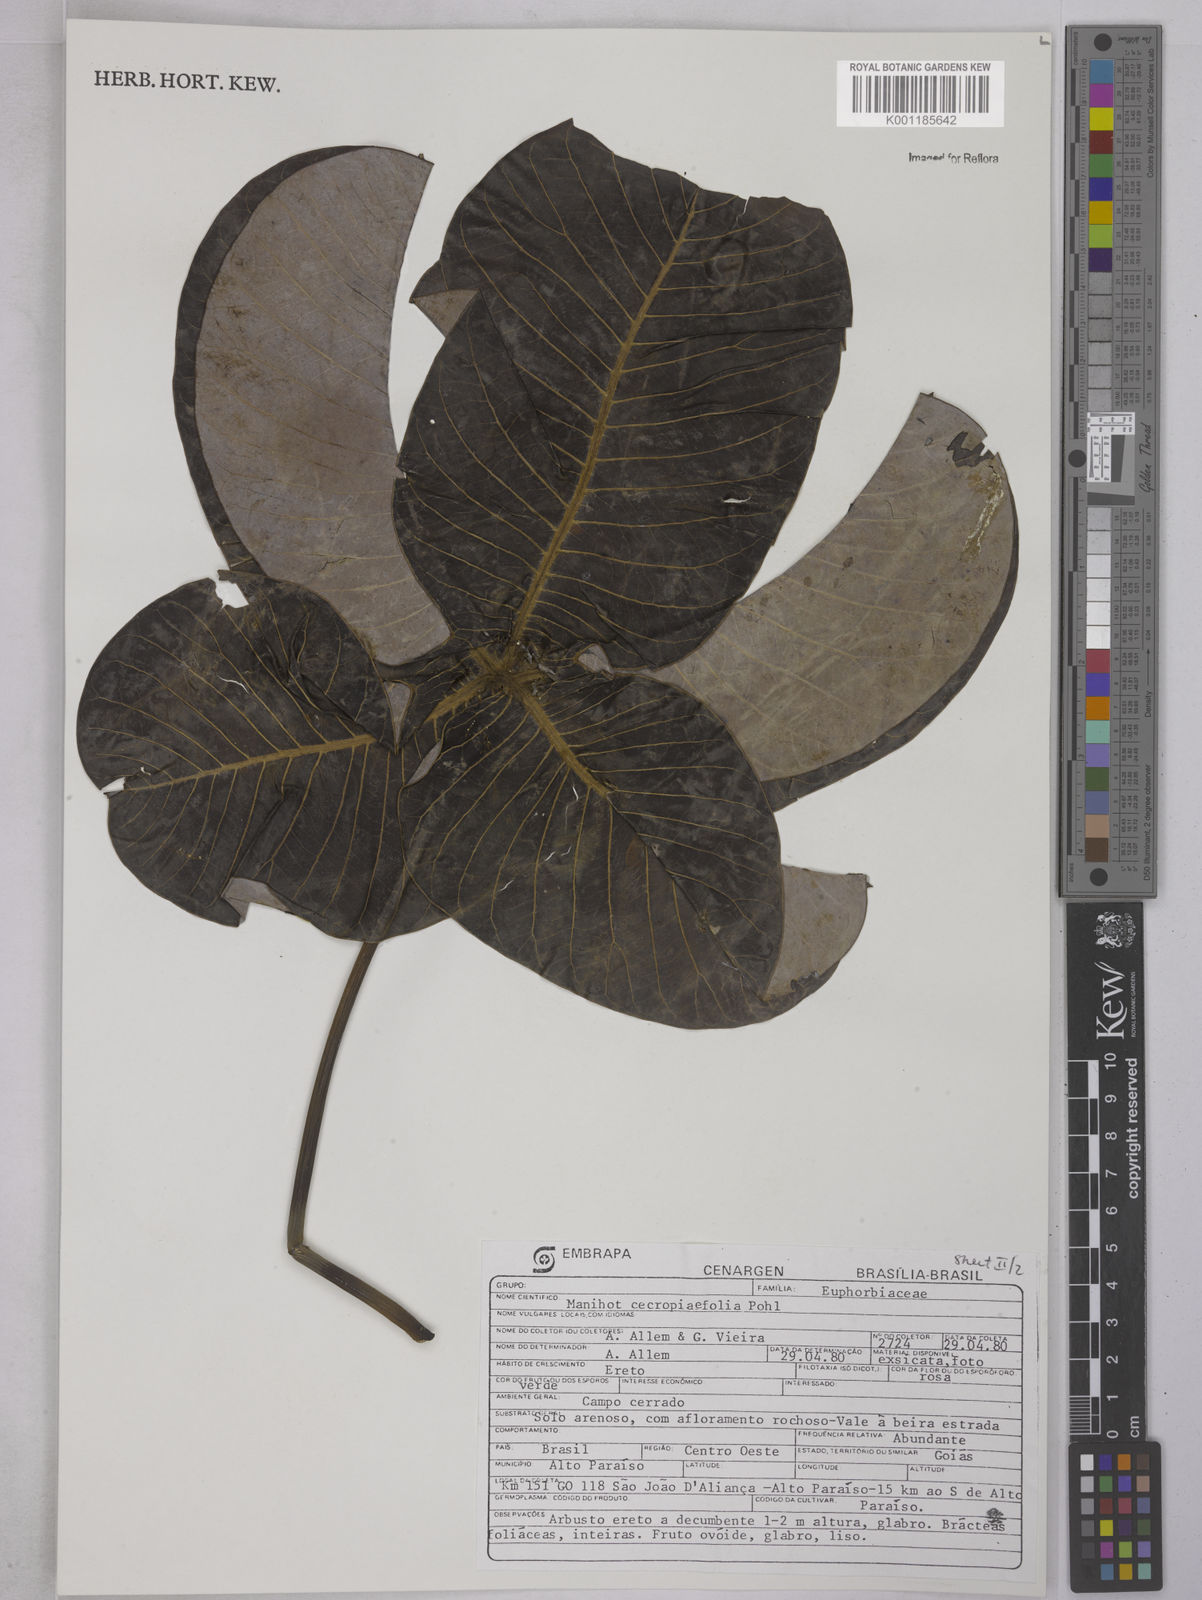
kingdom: Plantae
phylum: Tracheophyta
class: Magnoliopsida
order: Malpighiales
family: Euphorbiaceae
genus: Manihot
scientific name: Manihot cecropiifolia
